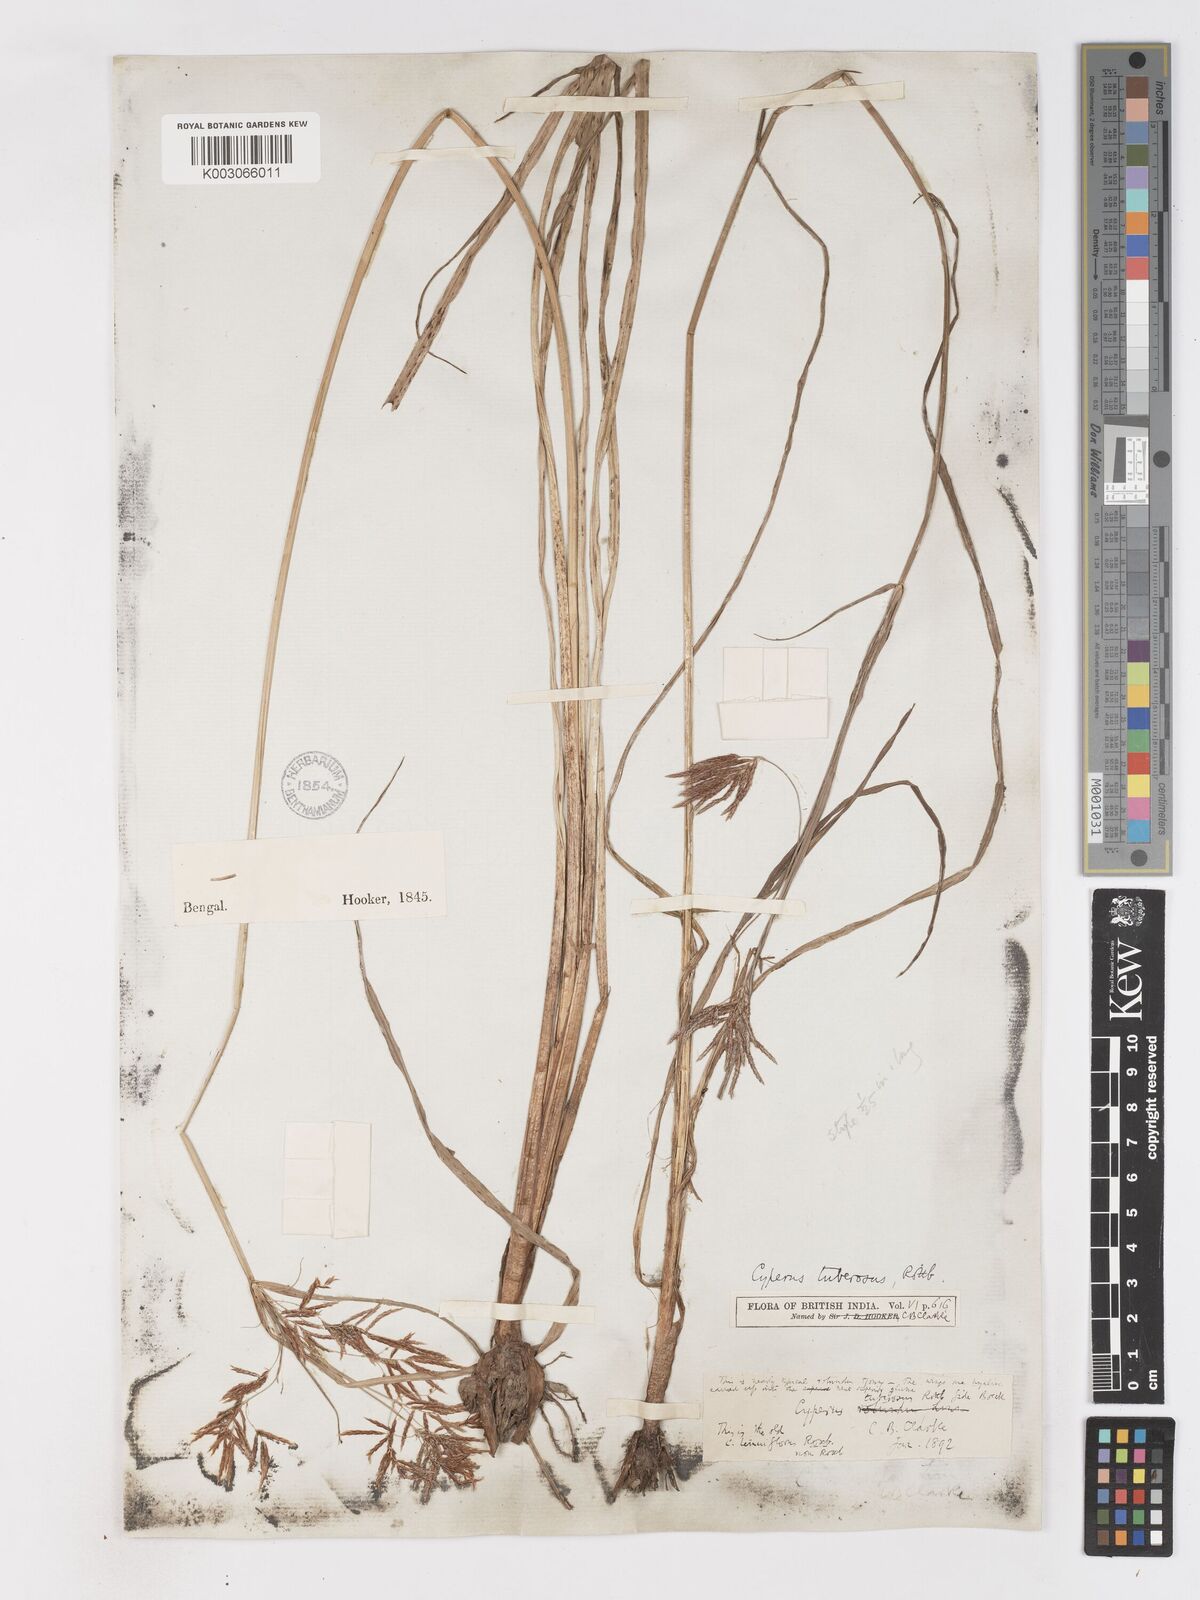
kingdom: Plantae
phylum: Tracheophyta
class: Liliopsida
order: Poales
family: Cyperaceae
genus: Cyperus
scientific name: Cyperus mitis
